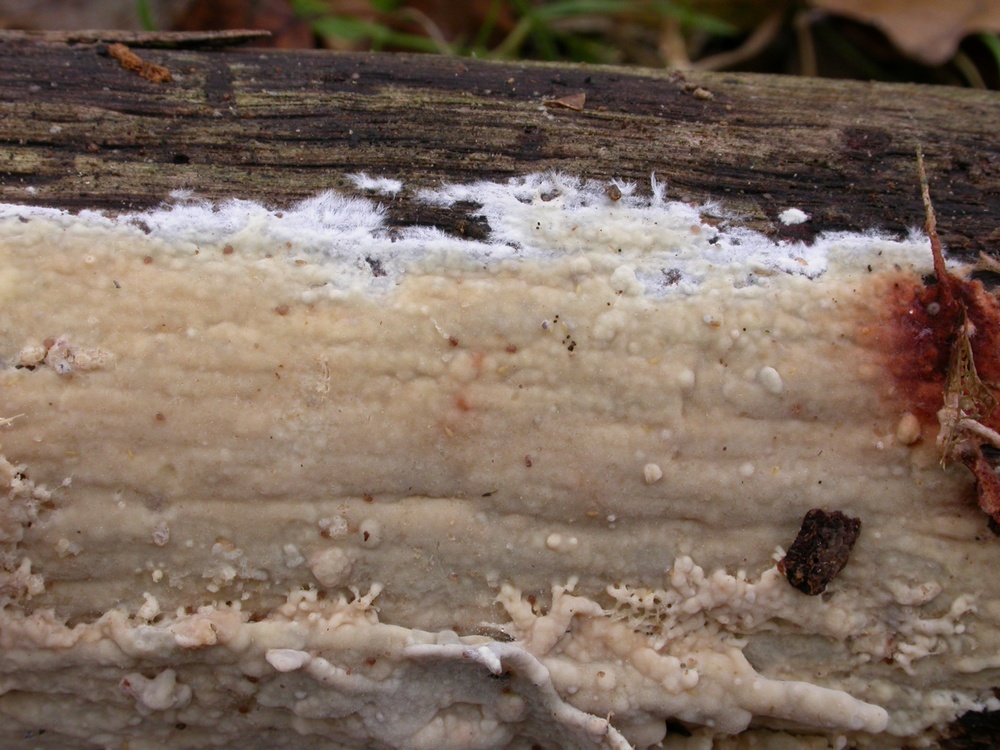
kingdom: Fungi
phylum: Basidiomycota
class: Agaricomycetes
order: Polyporales
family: Phanerochaetaceae
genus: Phanerochaete
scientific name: Phanerochaete velutina
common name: dunet randtråd
